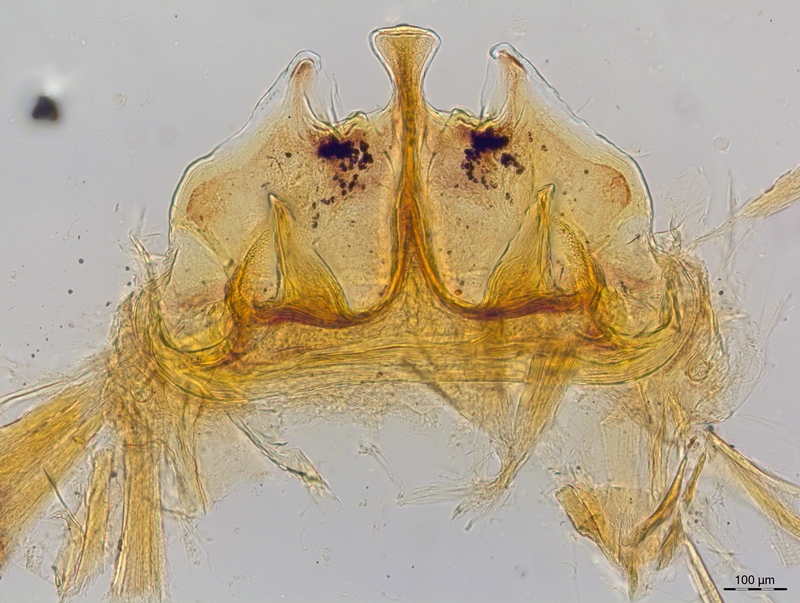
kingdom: Animalia
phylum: Arthropoda
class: Diplopoda
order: Chordeumatida
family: Craspedosomatidae
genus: Craspedosoma
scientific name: Craspedosoma rawlinsii
